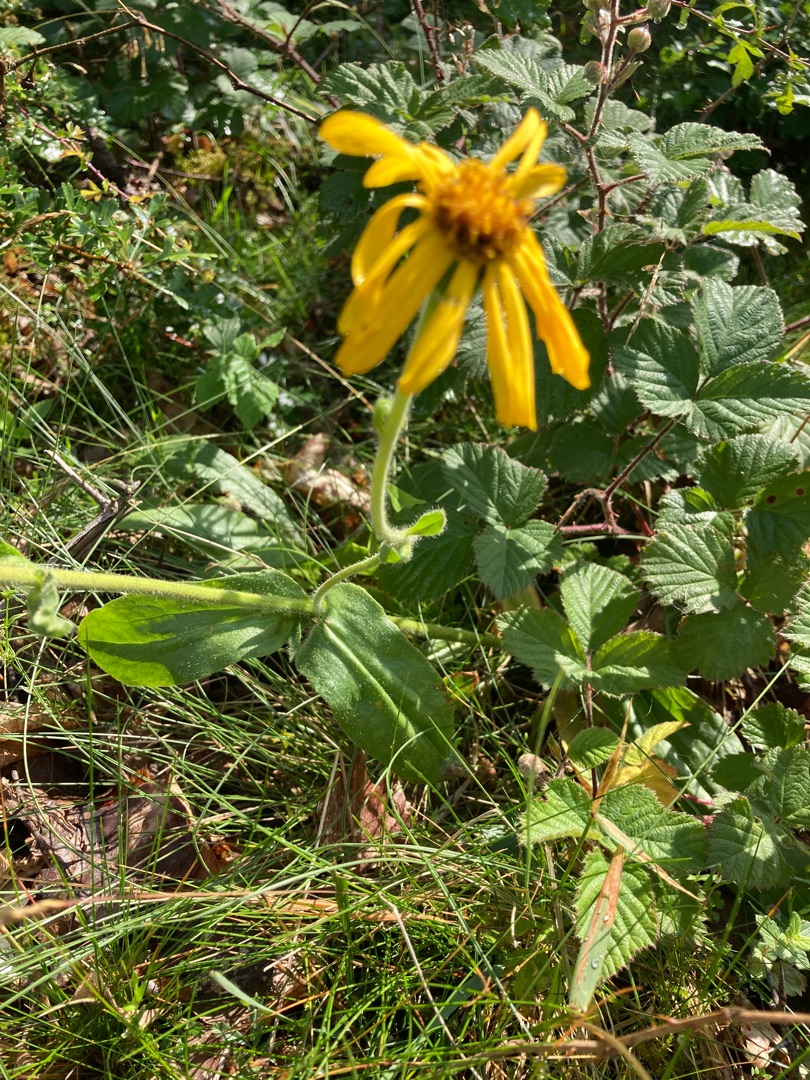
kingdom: Plantae
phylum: Tracheophyta
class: Magnoliopsida
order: Asterales
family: Asteraceae
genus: Arnica
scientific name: Arnica montana
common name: Guldblomme
